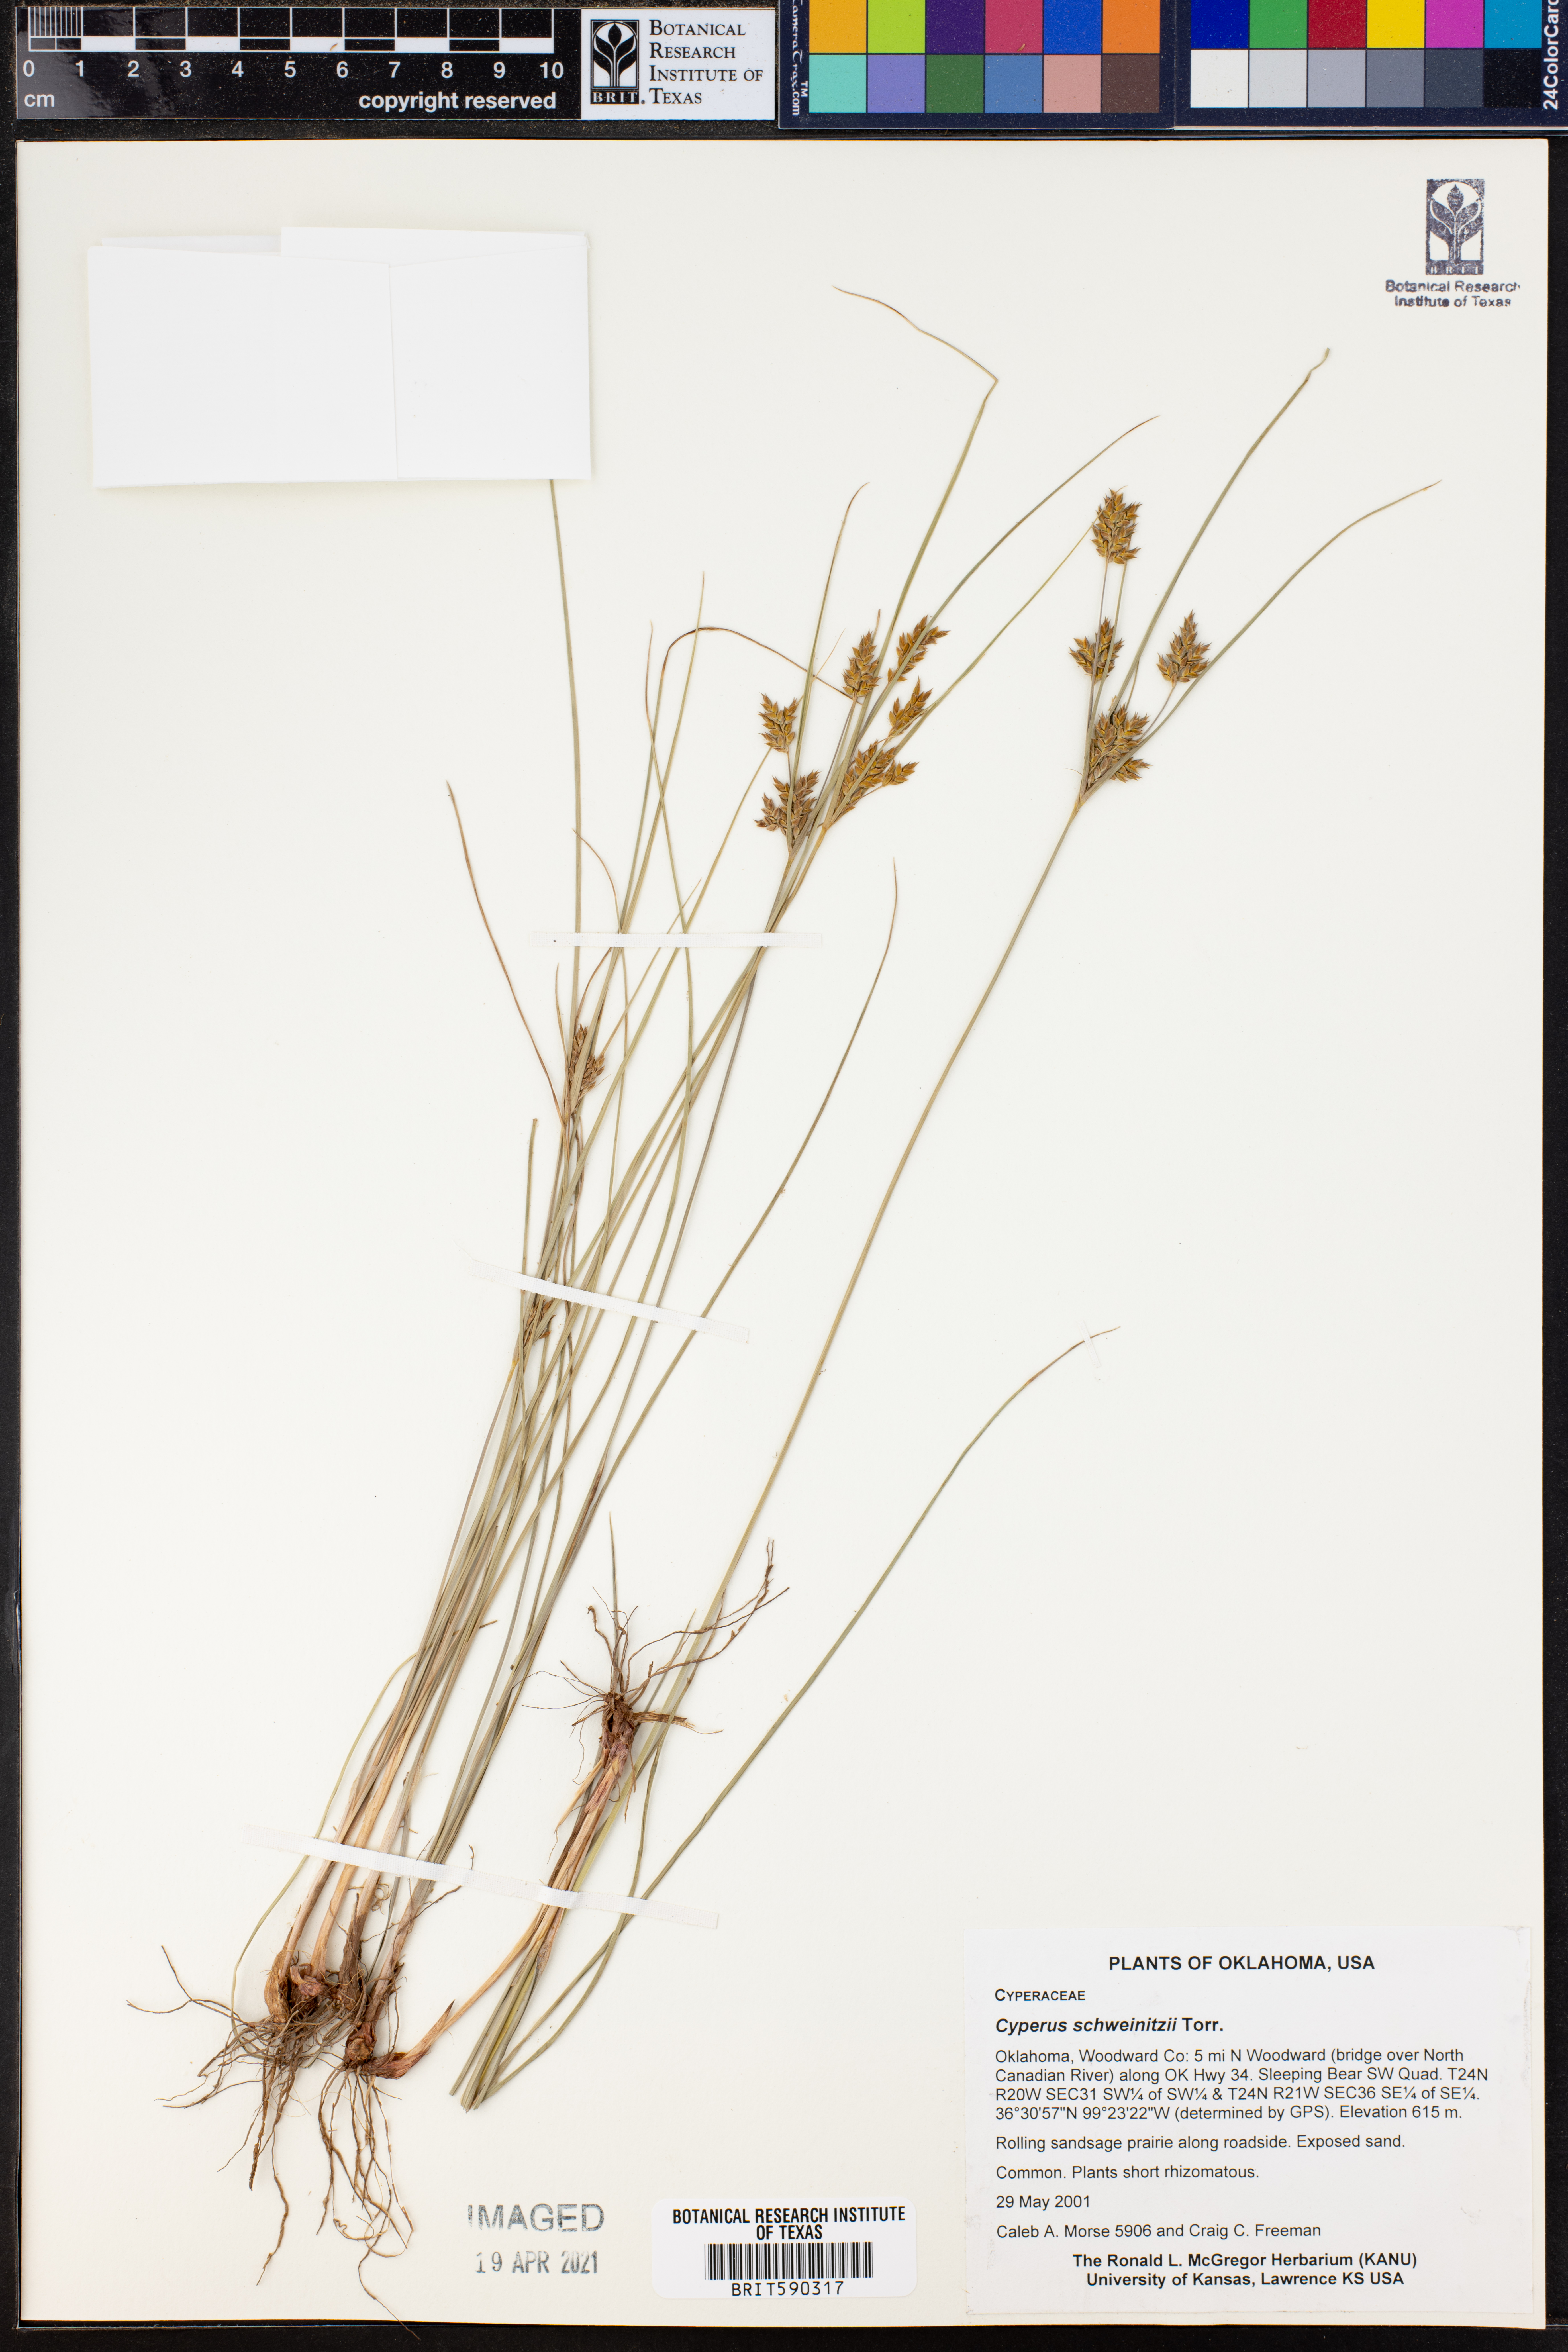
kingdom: Plantae
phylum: Tracheophyta
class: Liliopsida
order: Poales
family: Cyperaceae
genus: Cyperus
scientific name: Cyperus schweinitzii
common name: Schweinitz's cyperus
